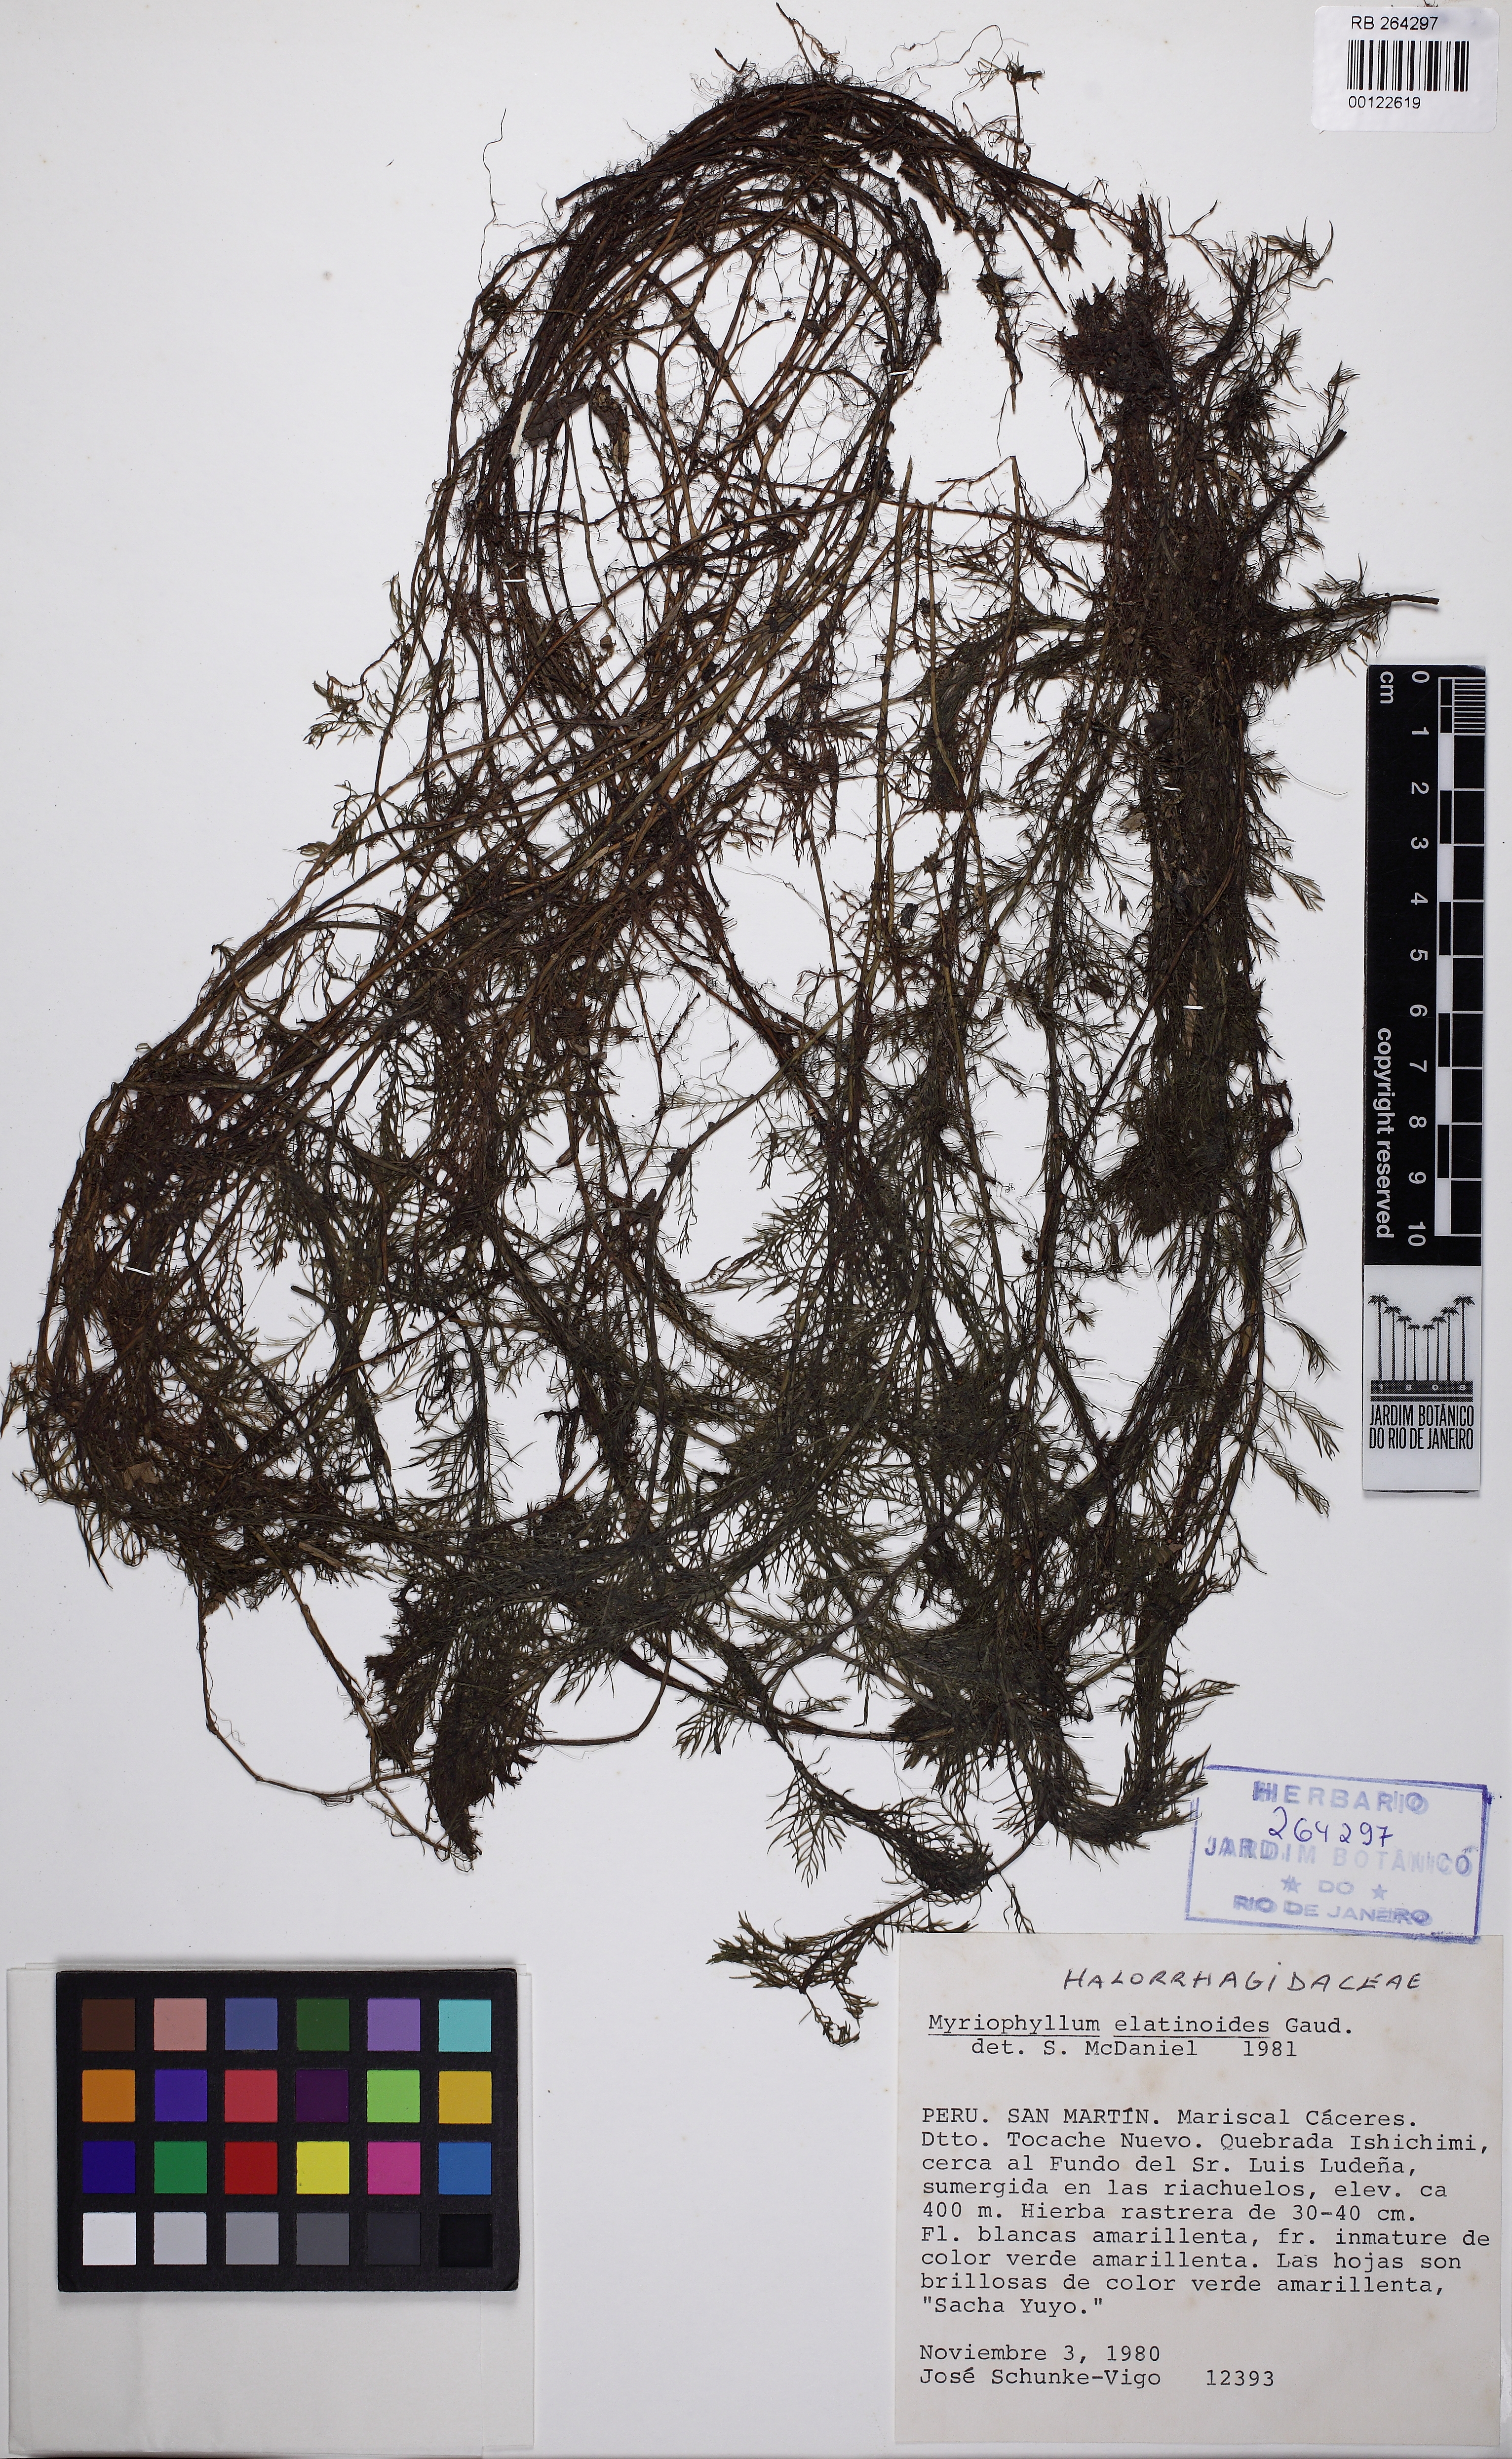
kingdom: Plantae
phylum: Tracheophyta
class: Magnoliopsida
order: Saxifragales
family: Haloragaceae
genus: Myriophyllum
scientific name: Myriophyllum quitense
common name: Andean water milfoil
